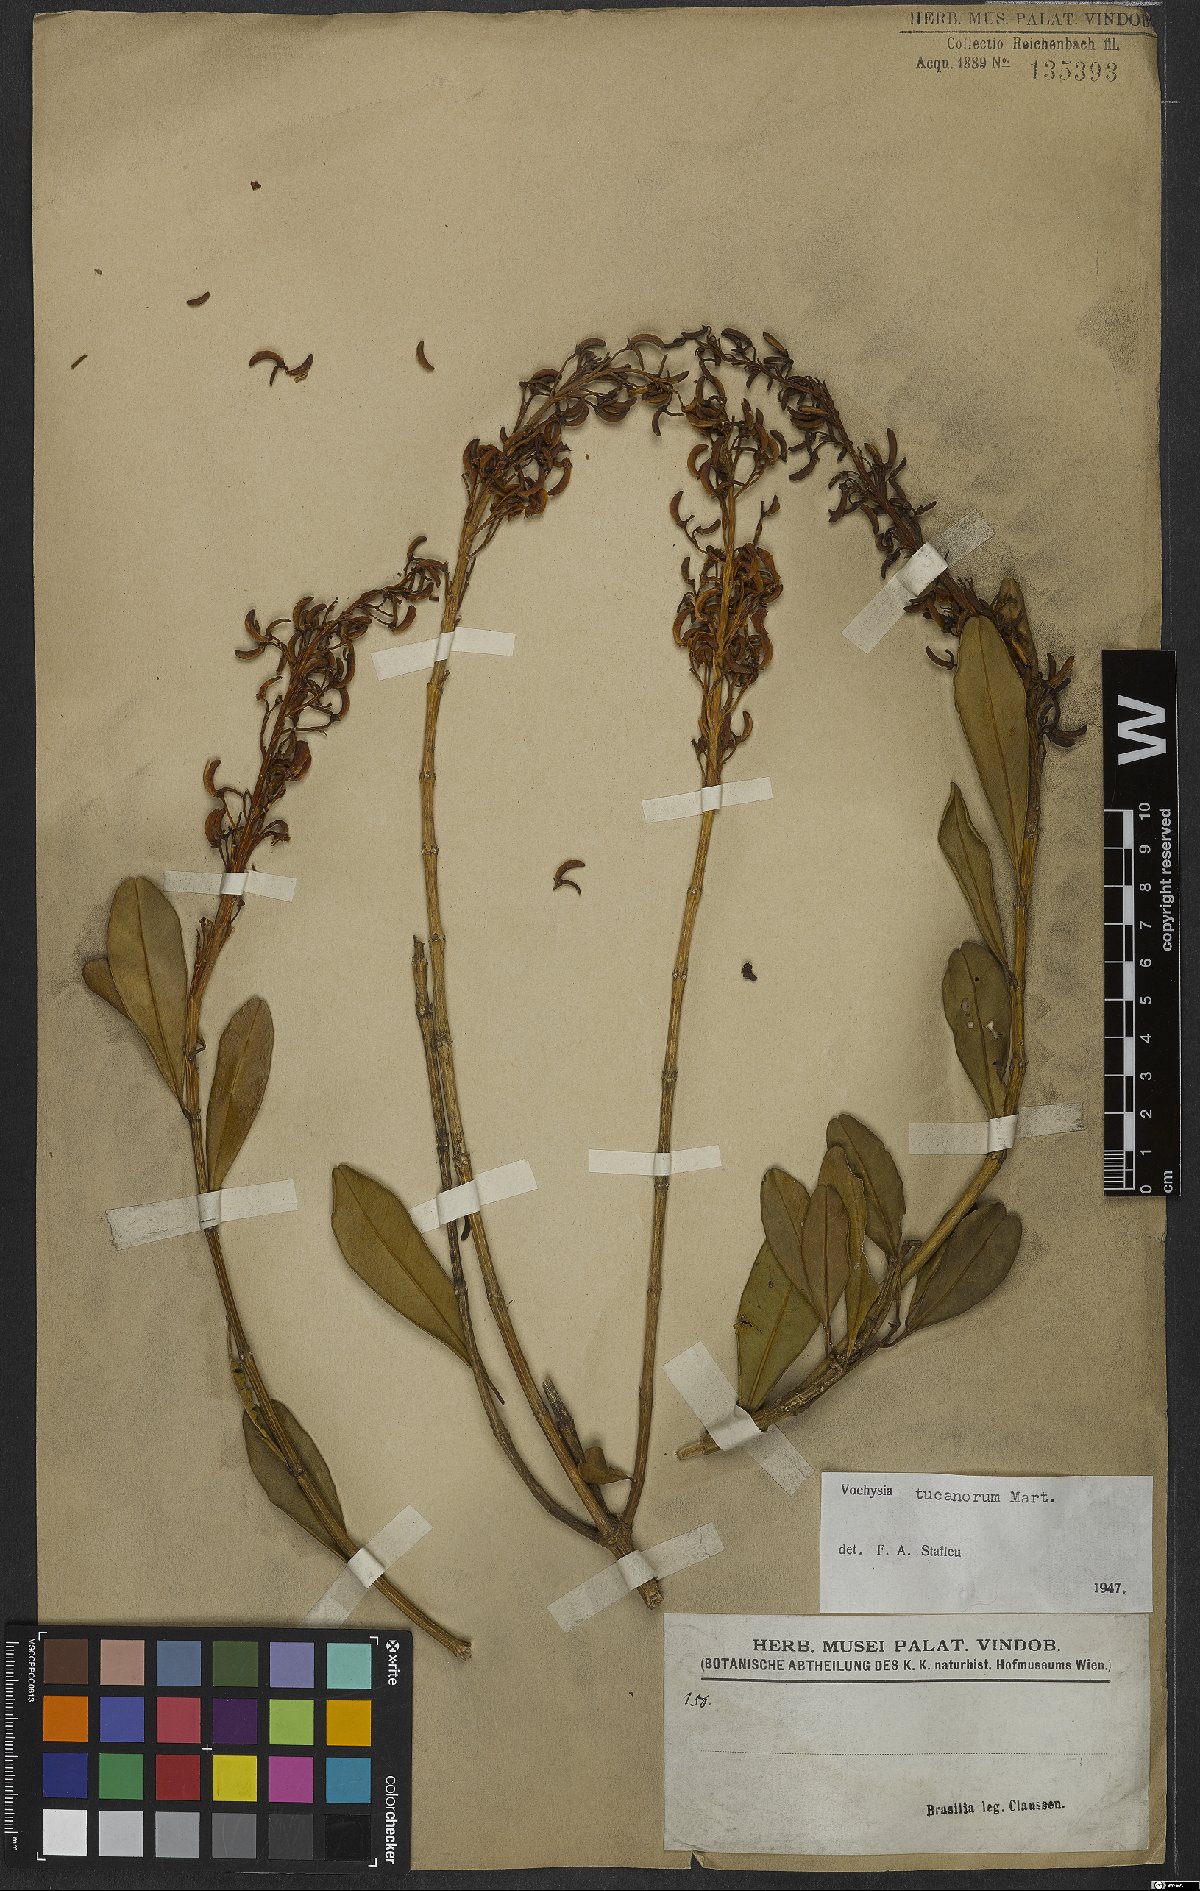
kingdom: Plantae
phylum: Tracheophyta
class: Magnoliopsida
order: Myrtales
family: Vochysiaceae
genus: Vochysia
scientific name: Vochysia tucanorum
